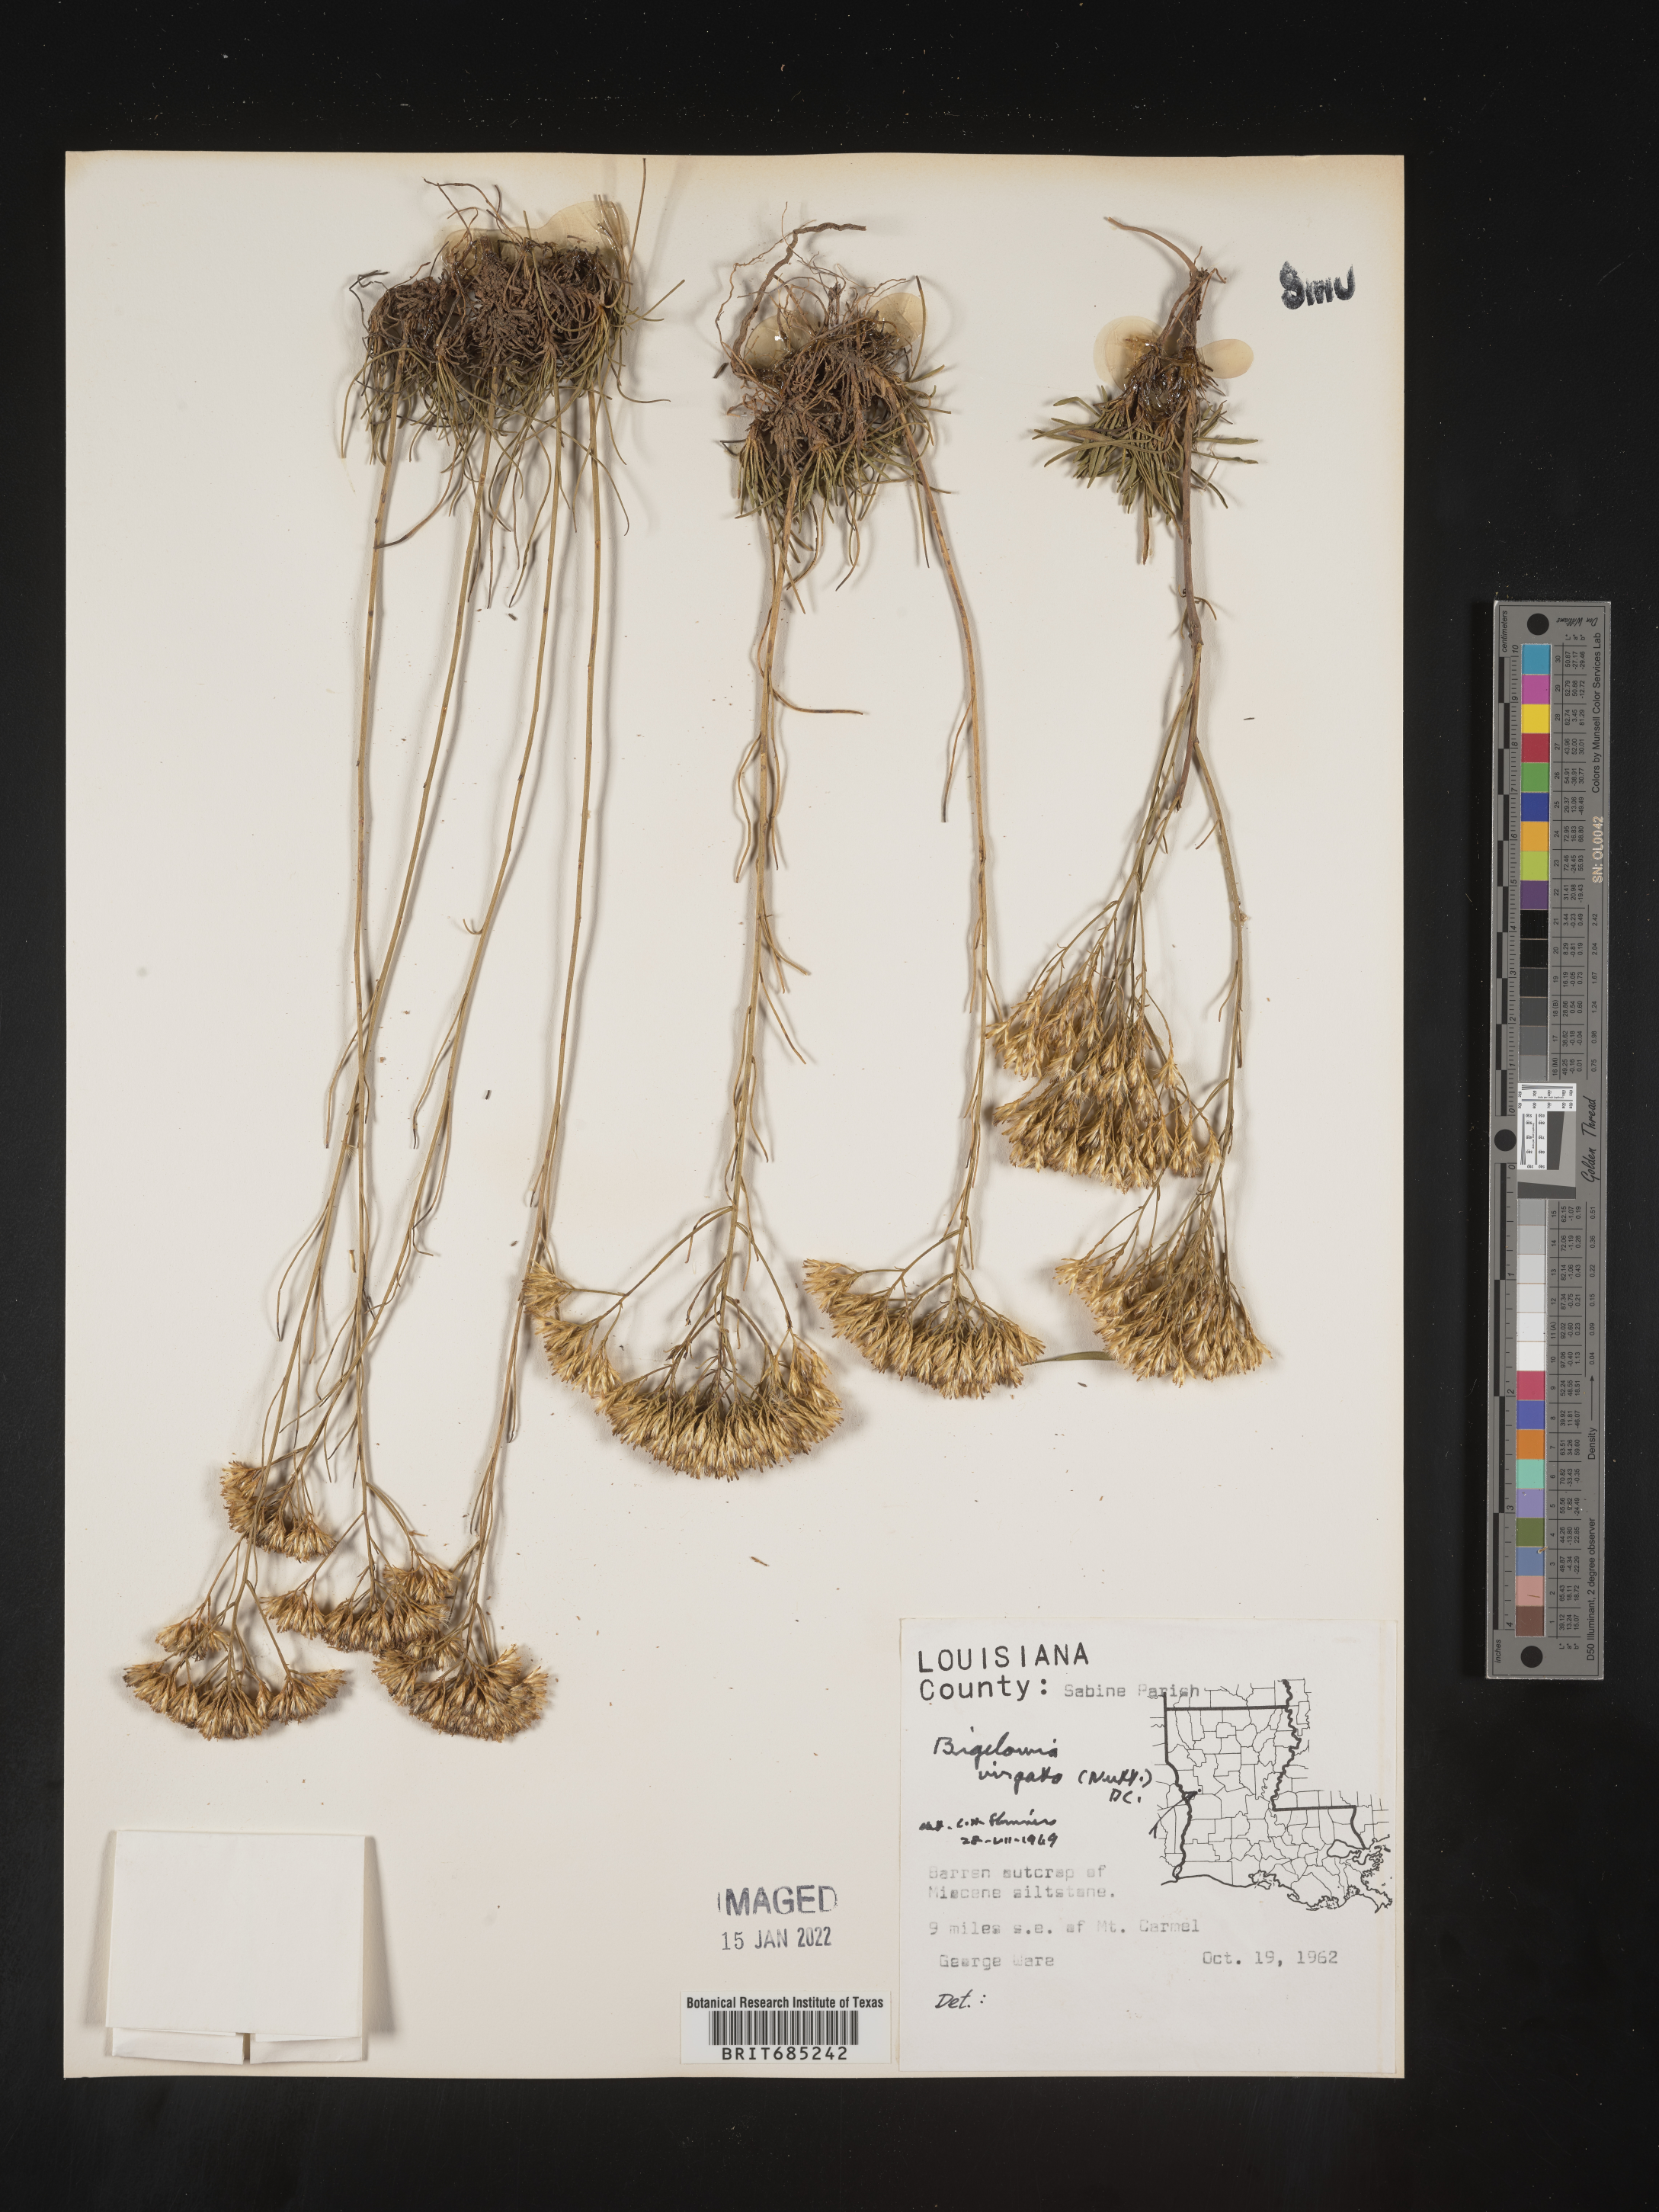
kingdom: Plantae
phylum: Tracheophyta
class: Magnoliopsida
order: Asterales
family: Asteraceae
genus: Bigelowia
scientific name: Bigelowia nuttallii
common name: Nuttall's rayless-goldenrod
